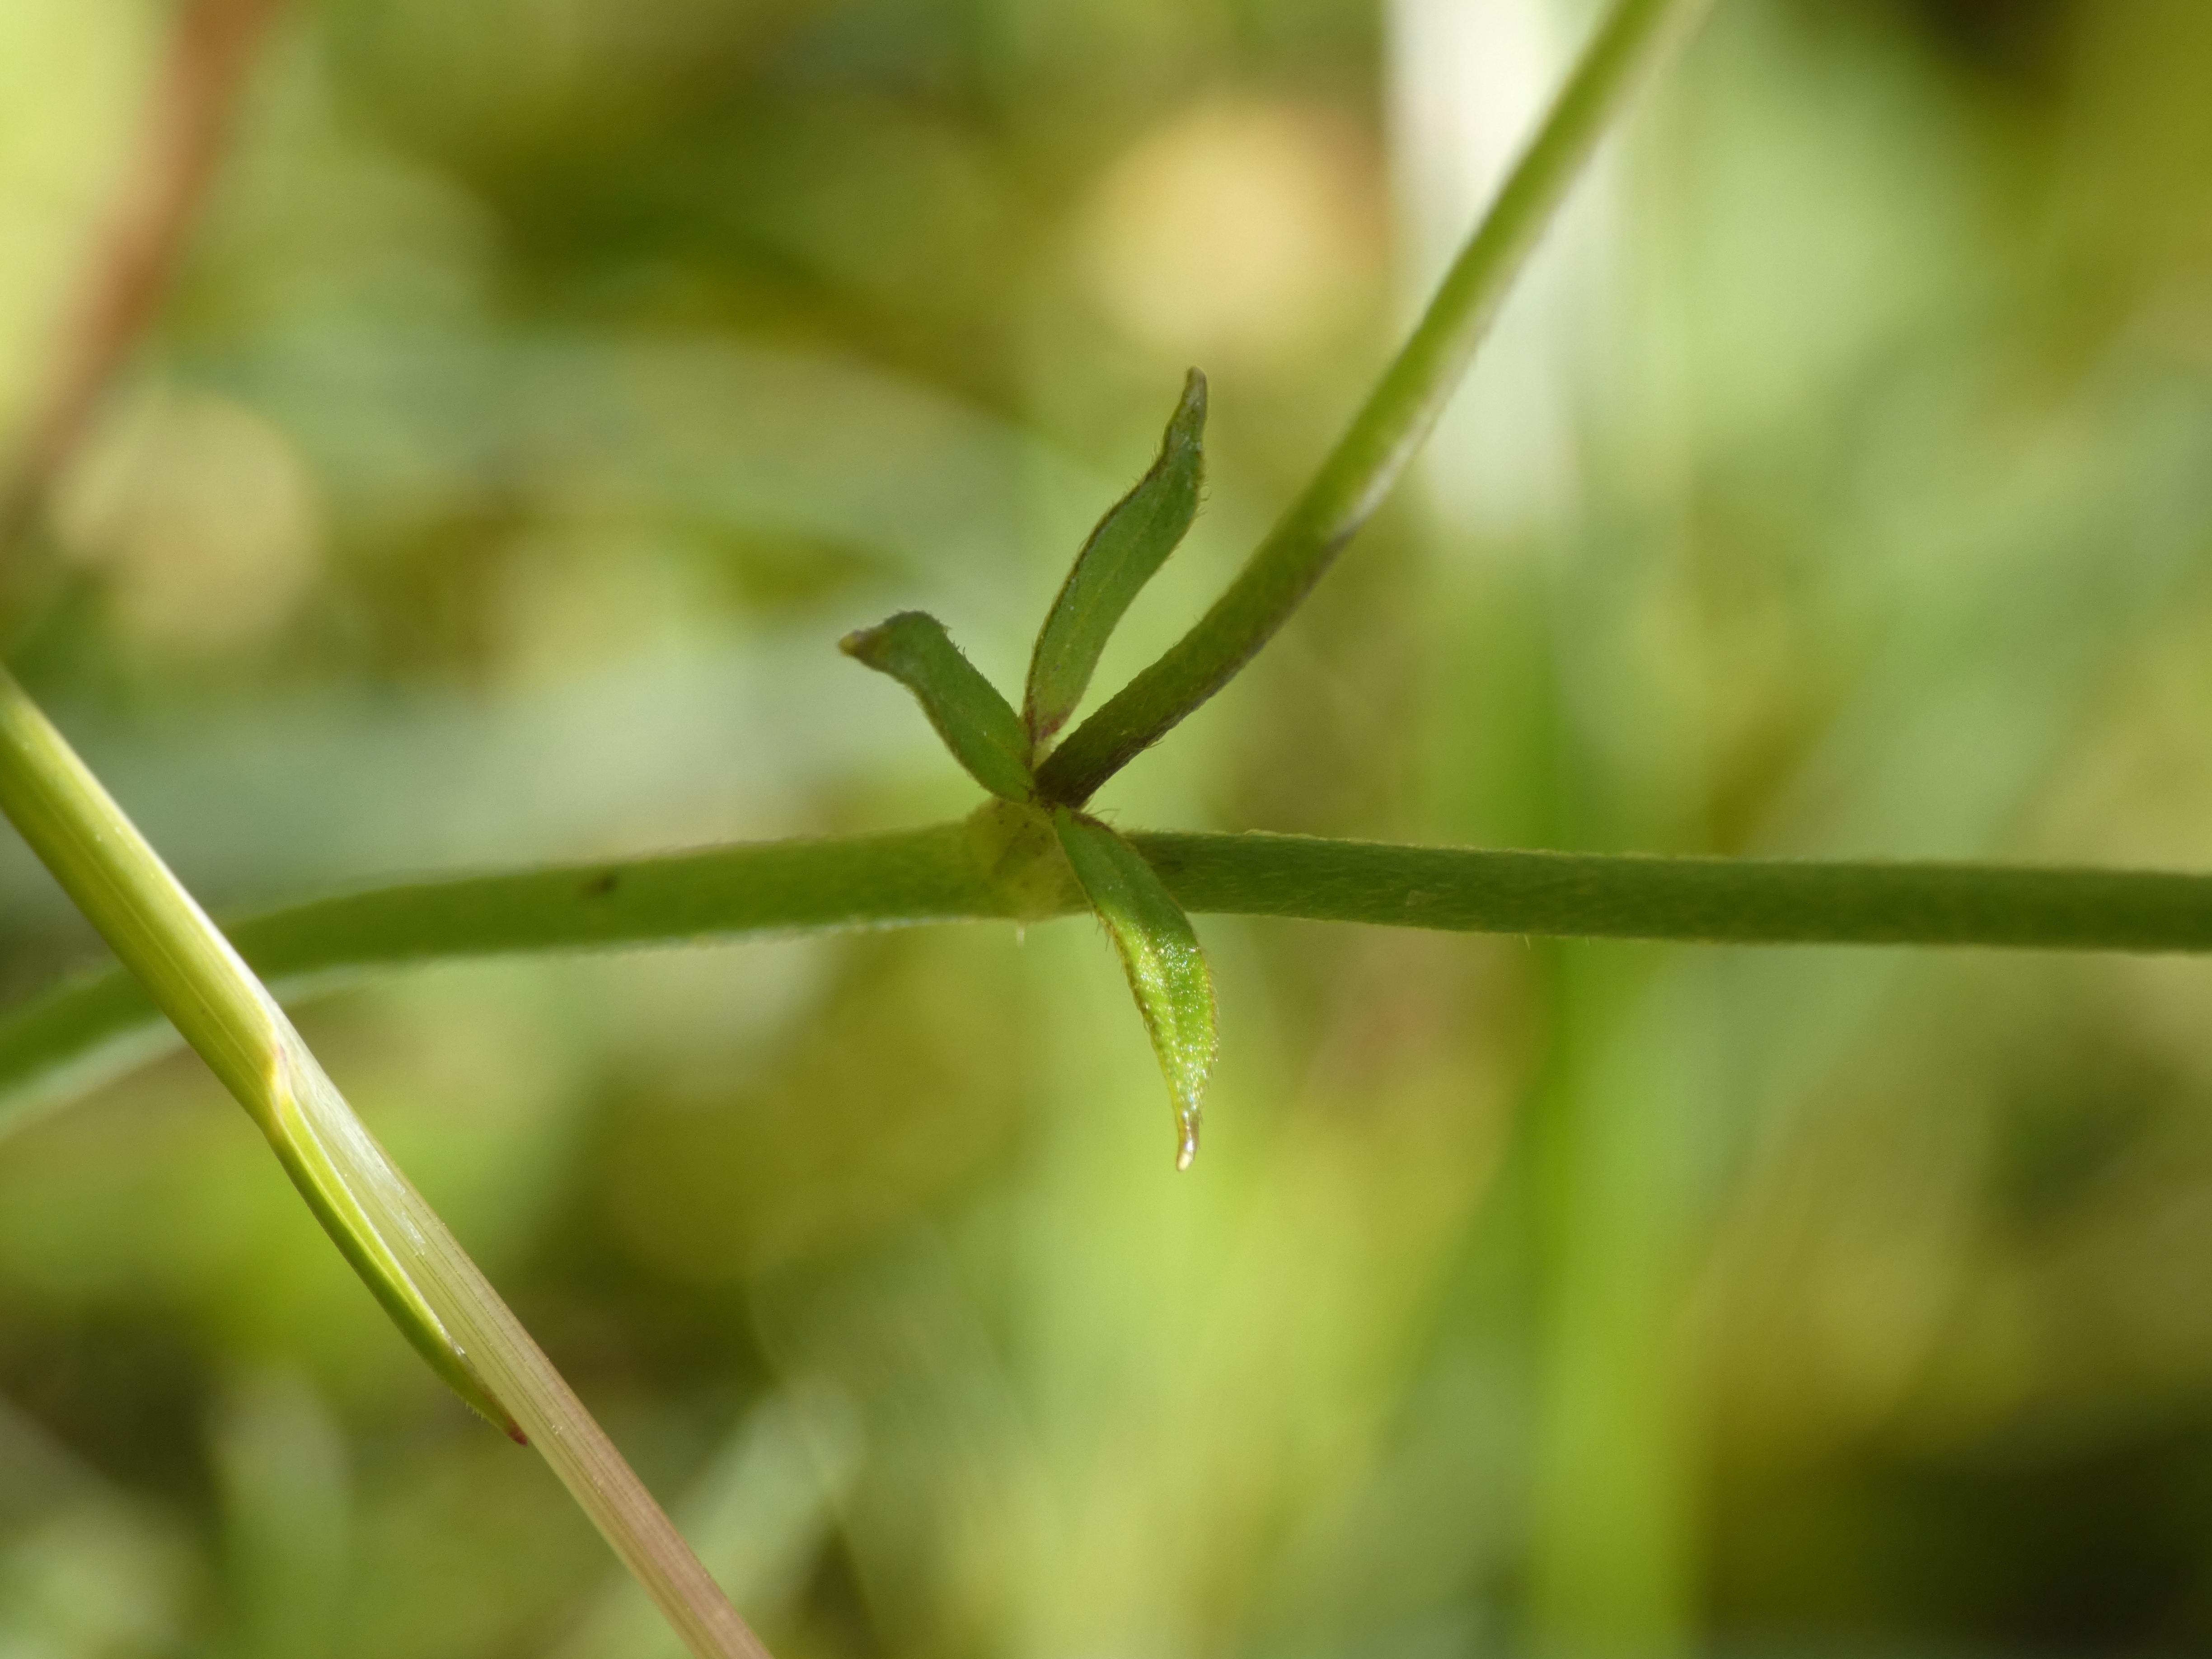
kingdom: Plantae
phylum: Tracheophyta
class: Magnoliopsida
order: Ranunculales
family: Ranunculaceae
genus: Ranunculus
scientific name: Ranunculus acris
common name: Bidende ranunkel
